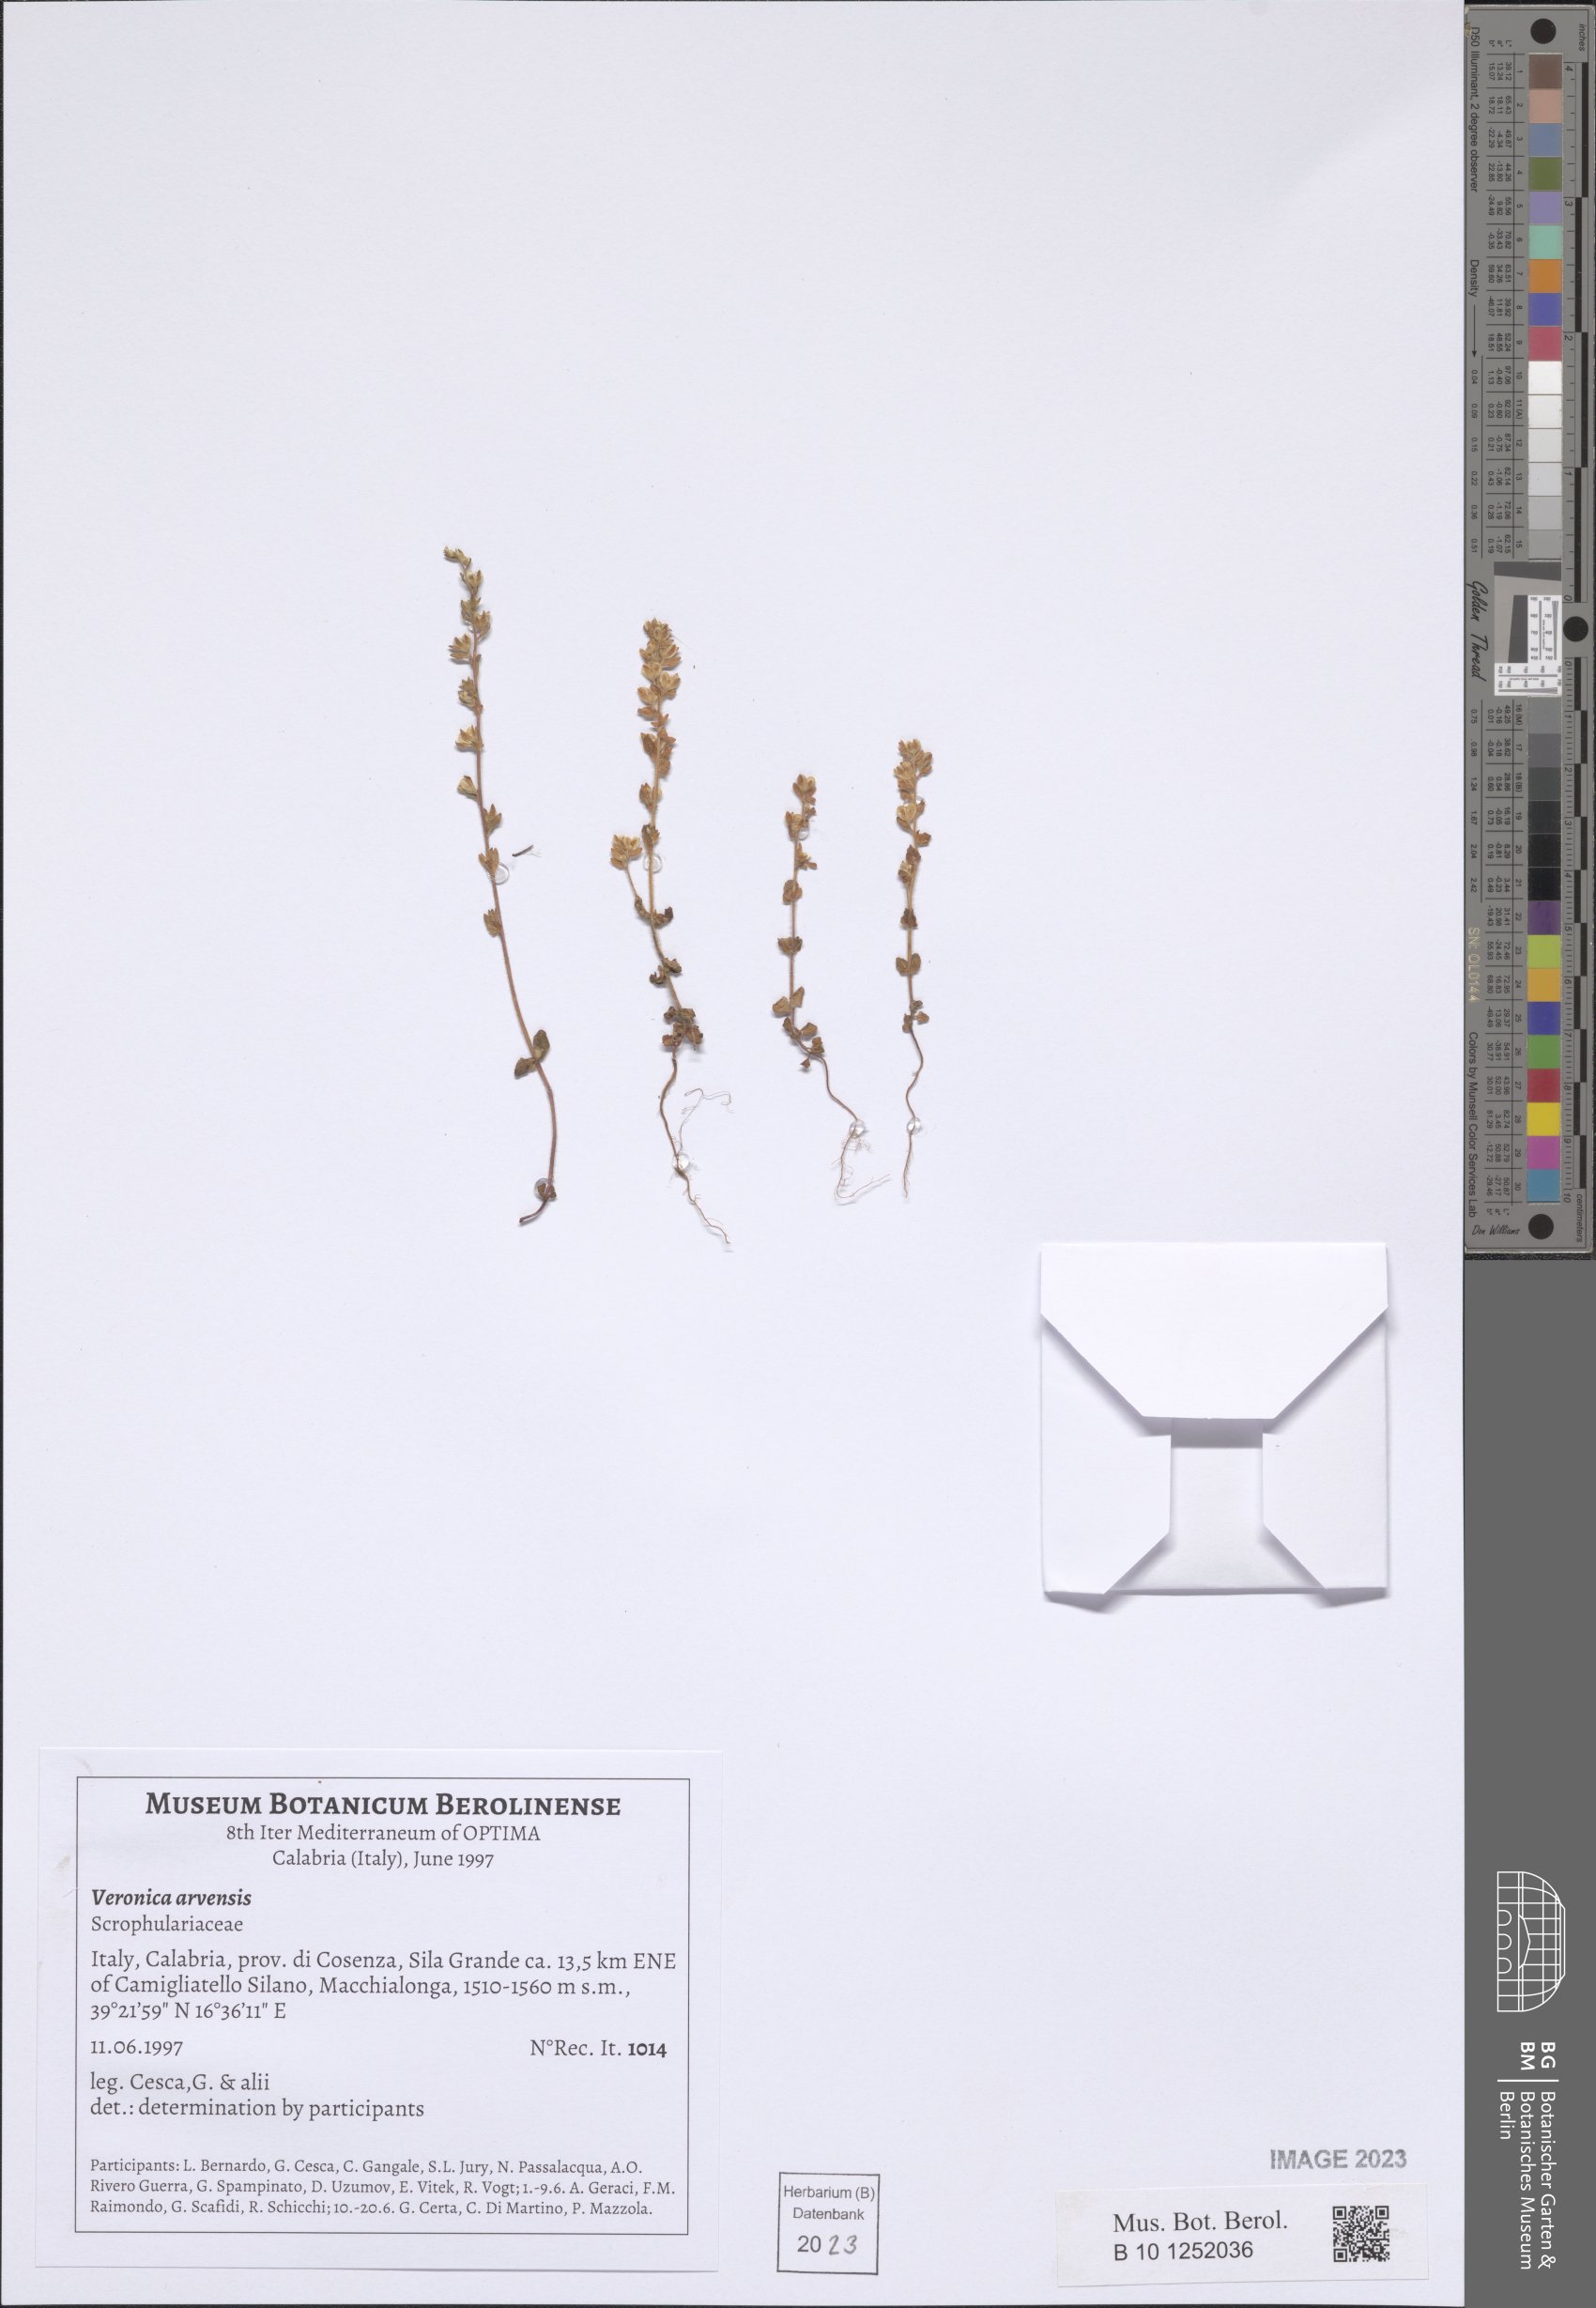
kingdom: Plantae
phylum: Tracheophyta
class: Magnoliopsida
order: Lamiales
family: Plantaginaceae
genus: Veronica
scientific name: Veronica arvensis
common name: Corn speedwell
